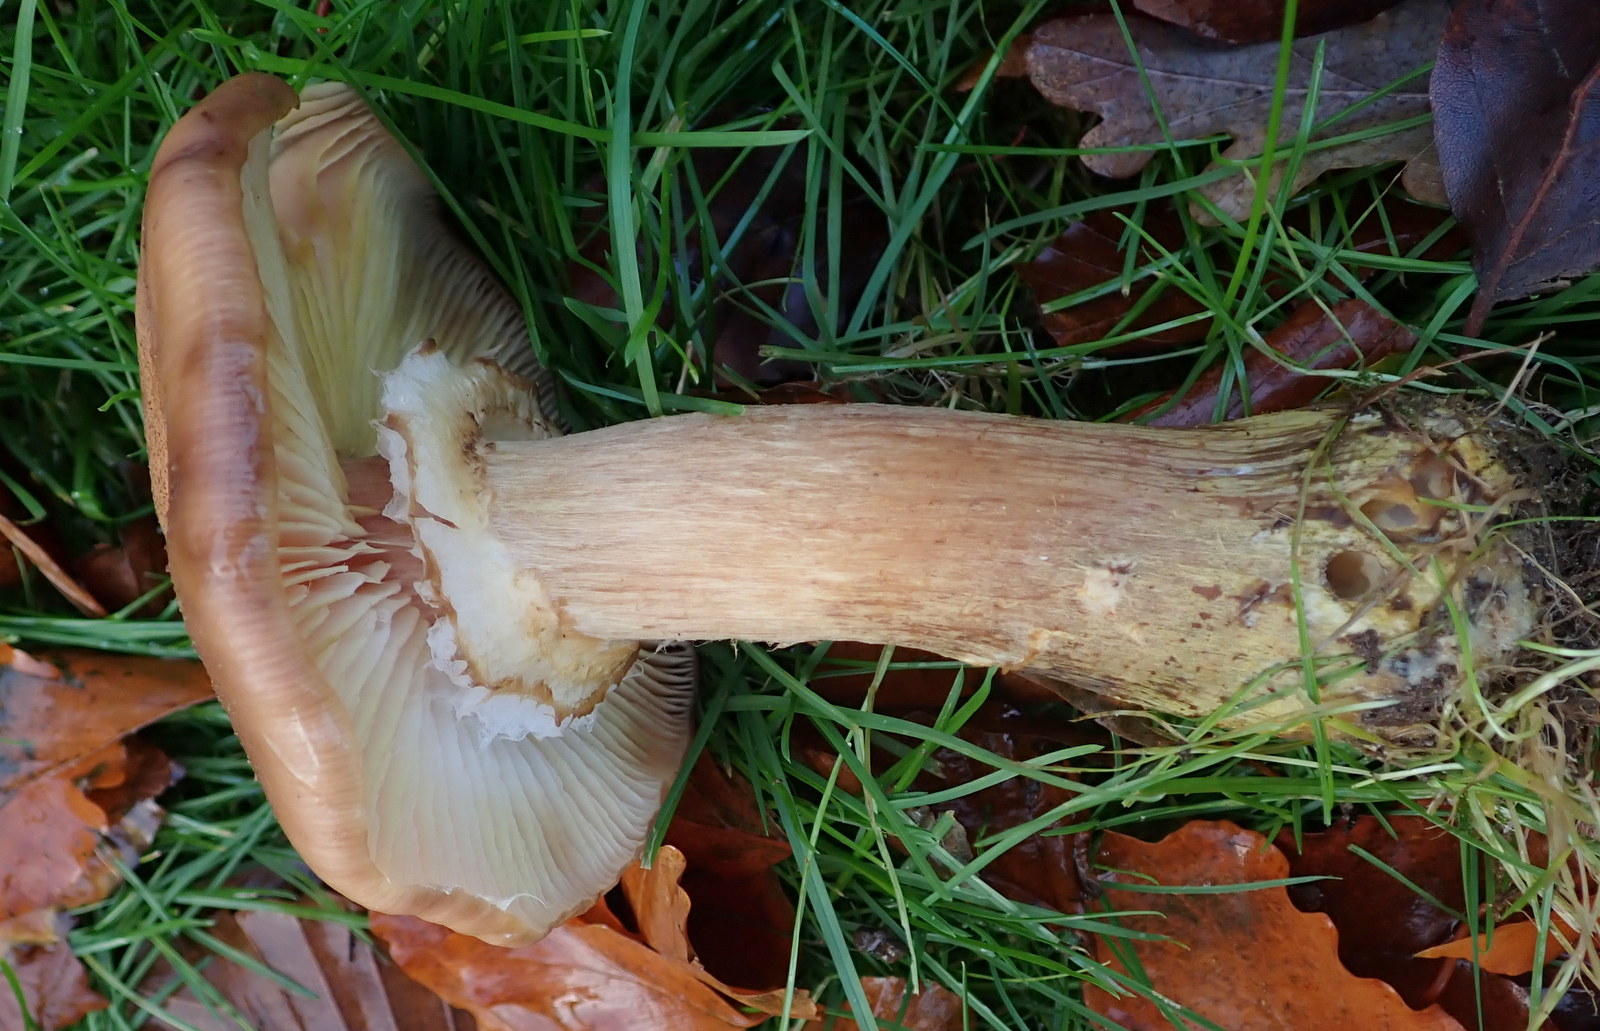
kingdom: Fungi
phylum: Basidiomycota
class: Agaricomycetes
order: Agaricales
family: Physalacriaceae
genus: Armillaria
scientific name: Armillaria lutea
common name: køllestokket honningsvamp
